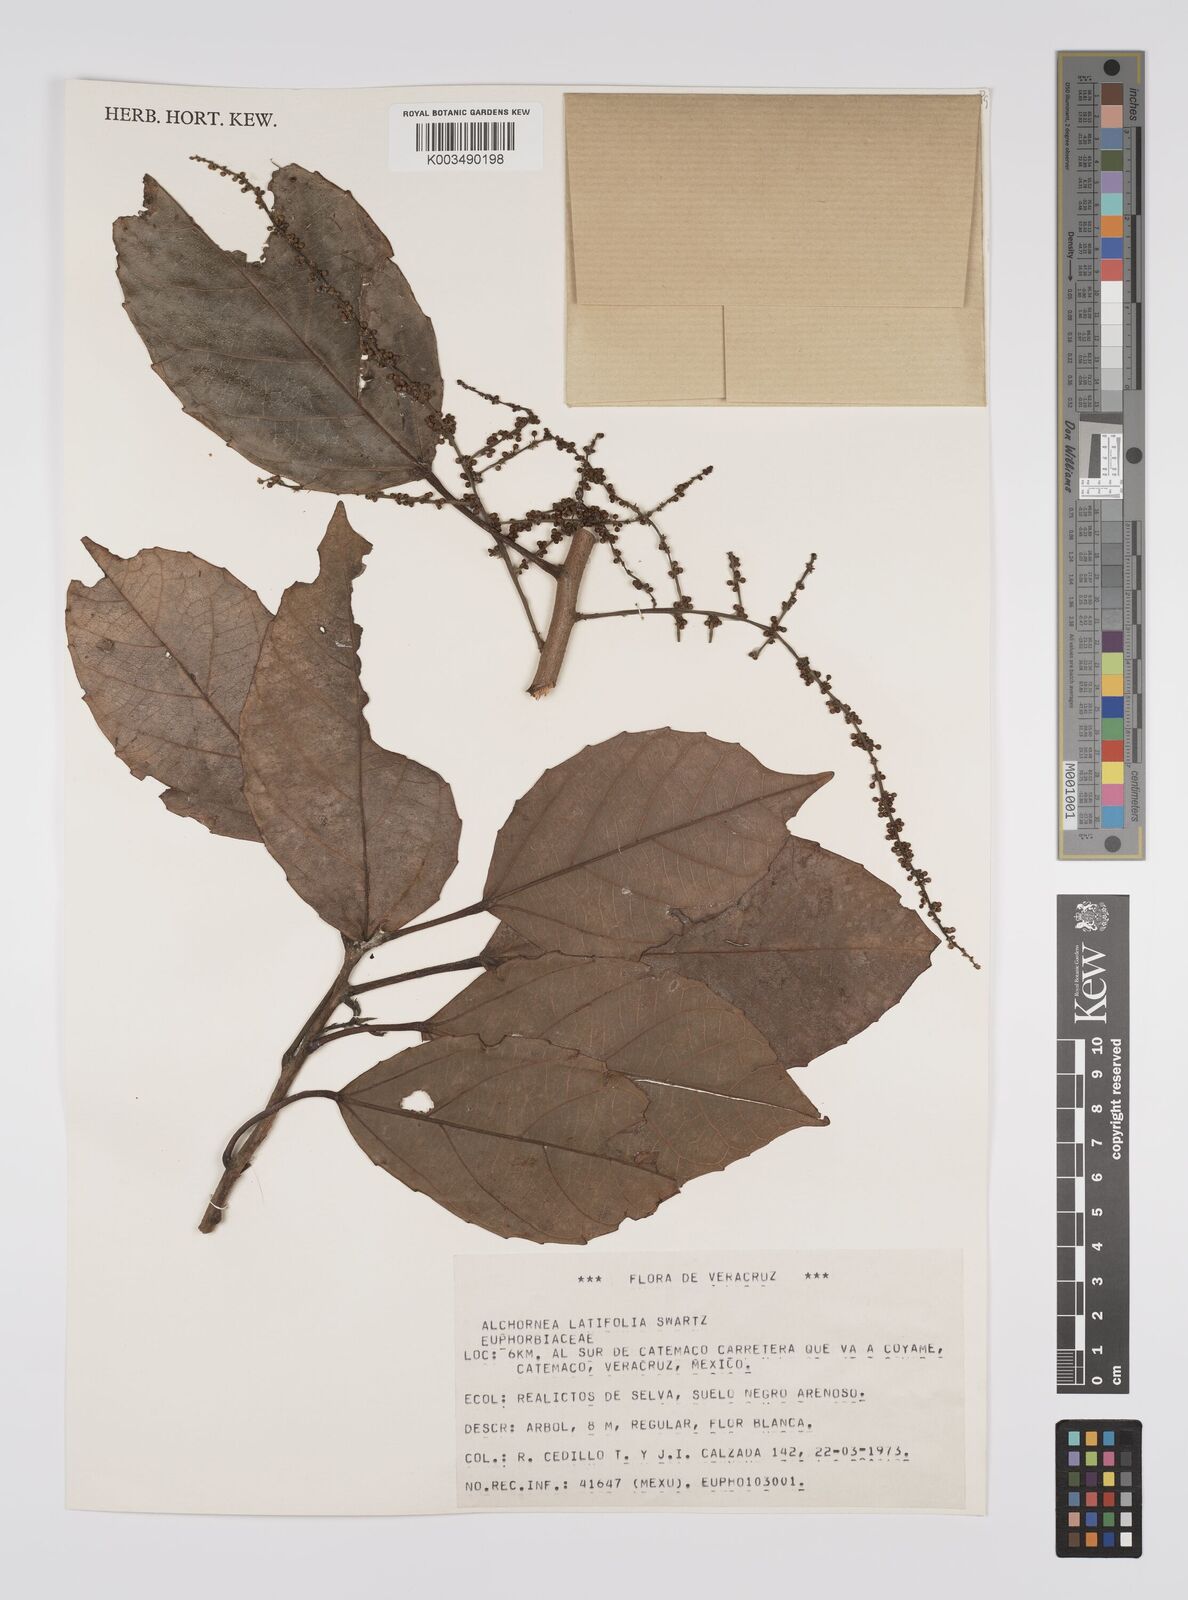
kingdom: Plantae
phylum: Tracheophyta
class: Magnoliopsida
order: Malpighiales
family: Euphorbiaceae
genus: Alchornea
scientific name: Alchornea latifolia
